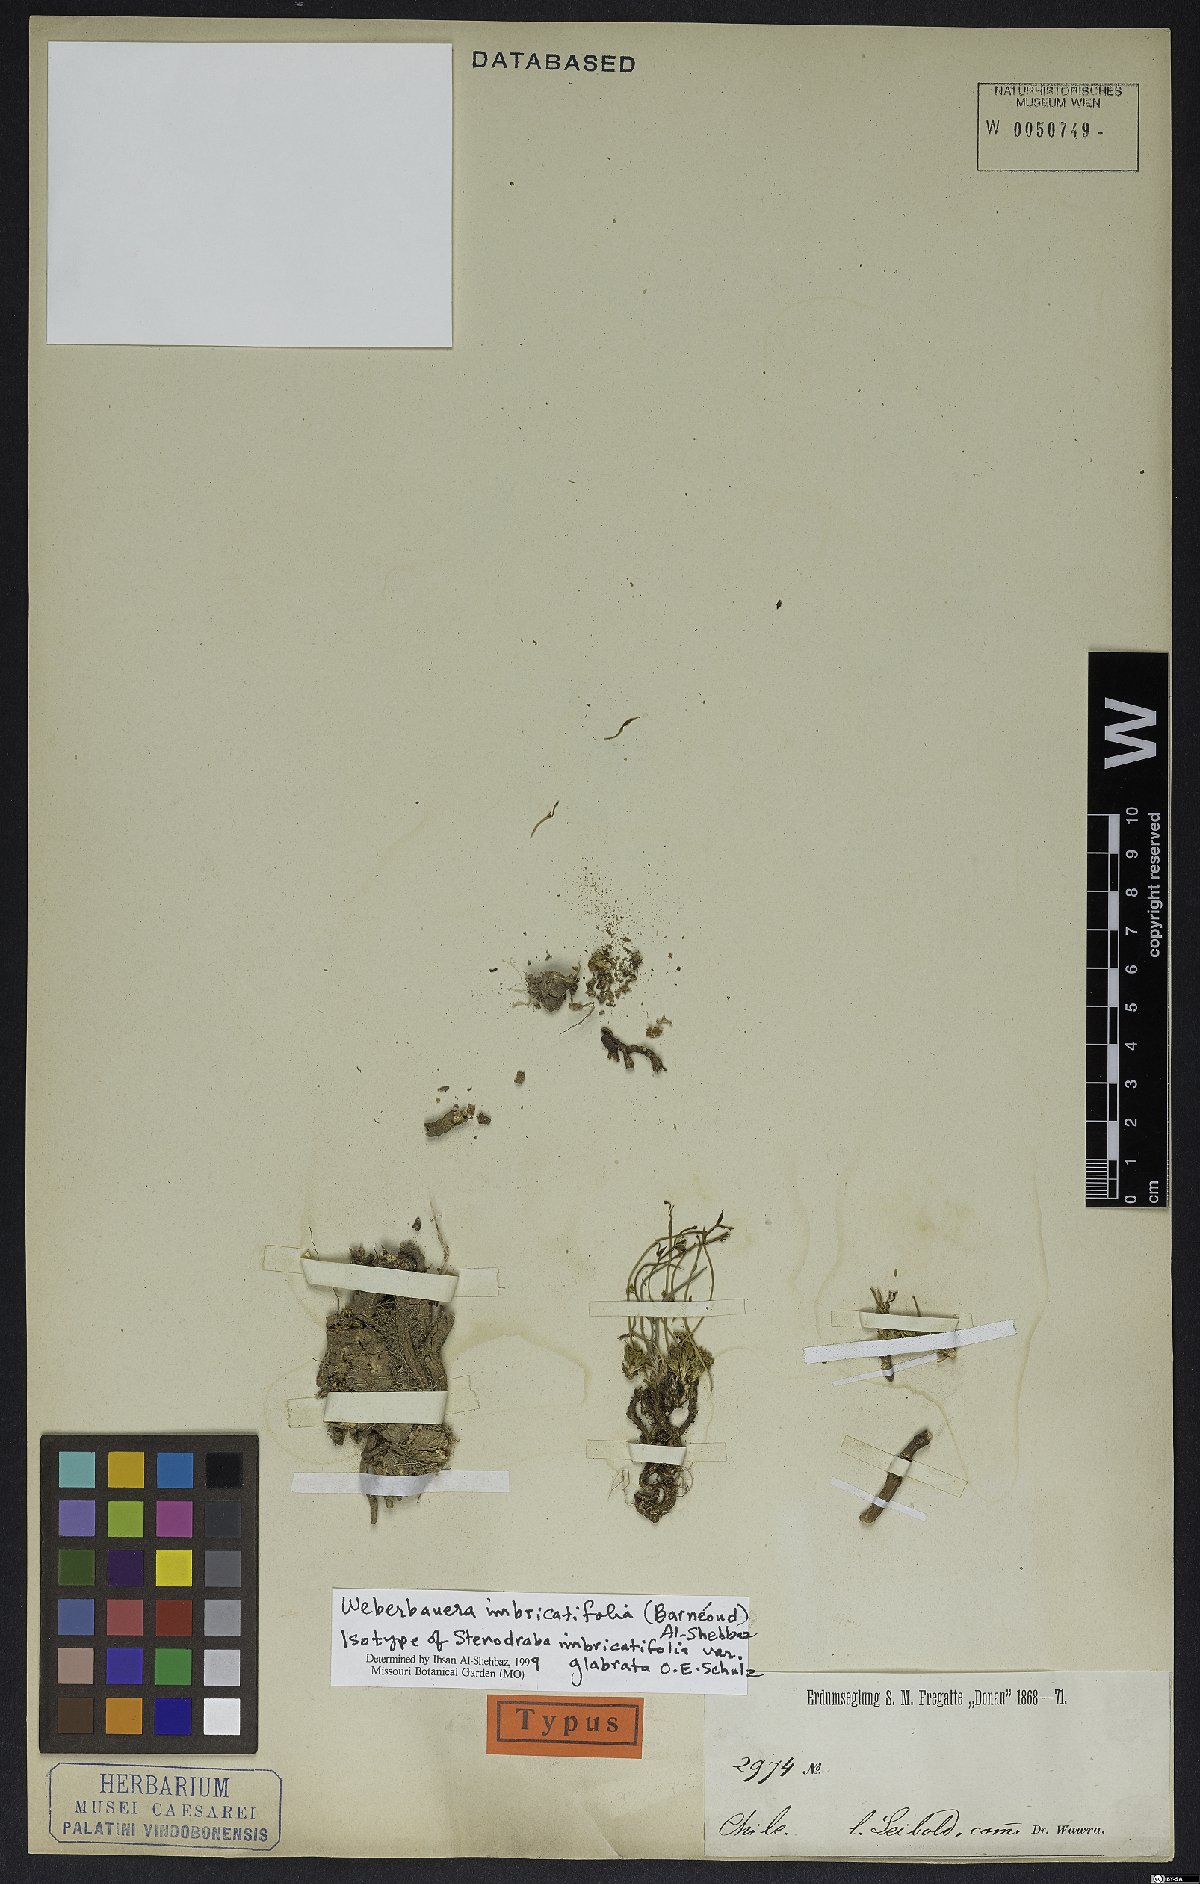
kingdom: Plantae
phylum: Tracheophyta
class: Magnoliopsida
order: Brassicales
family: Brassicaceae
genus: Stenodraba
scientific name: Stenodraba imbricatifolia
